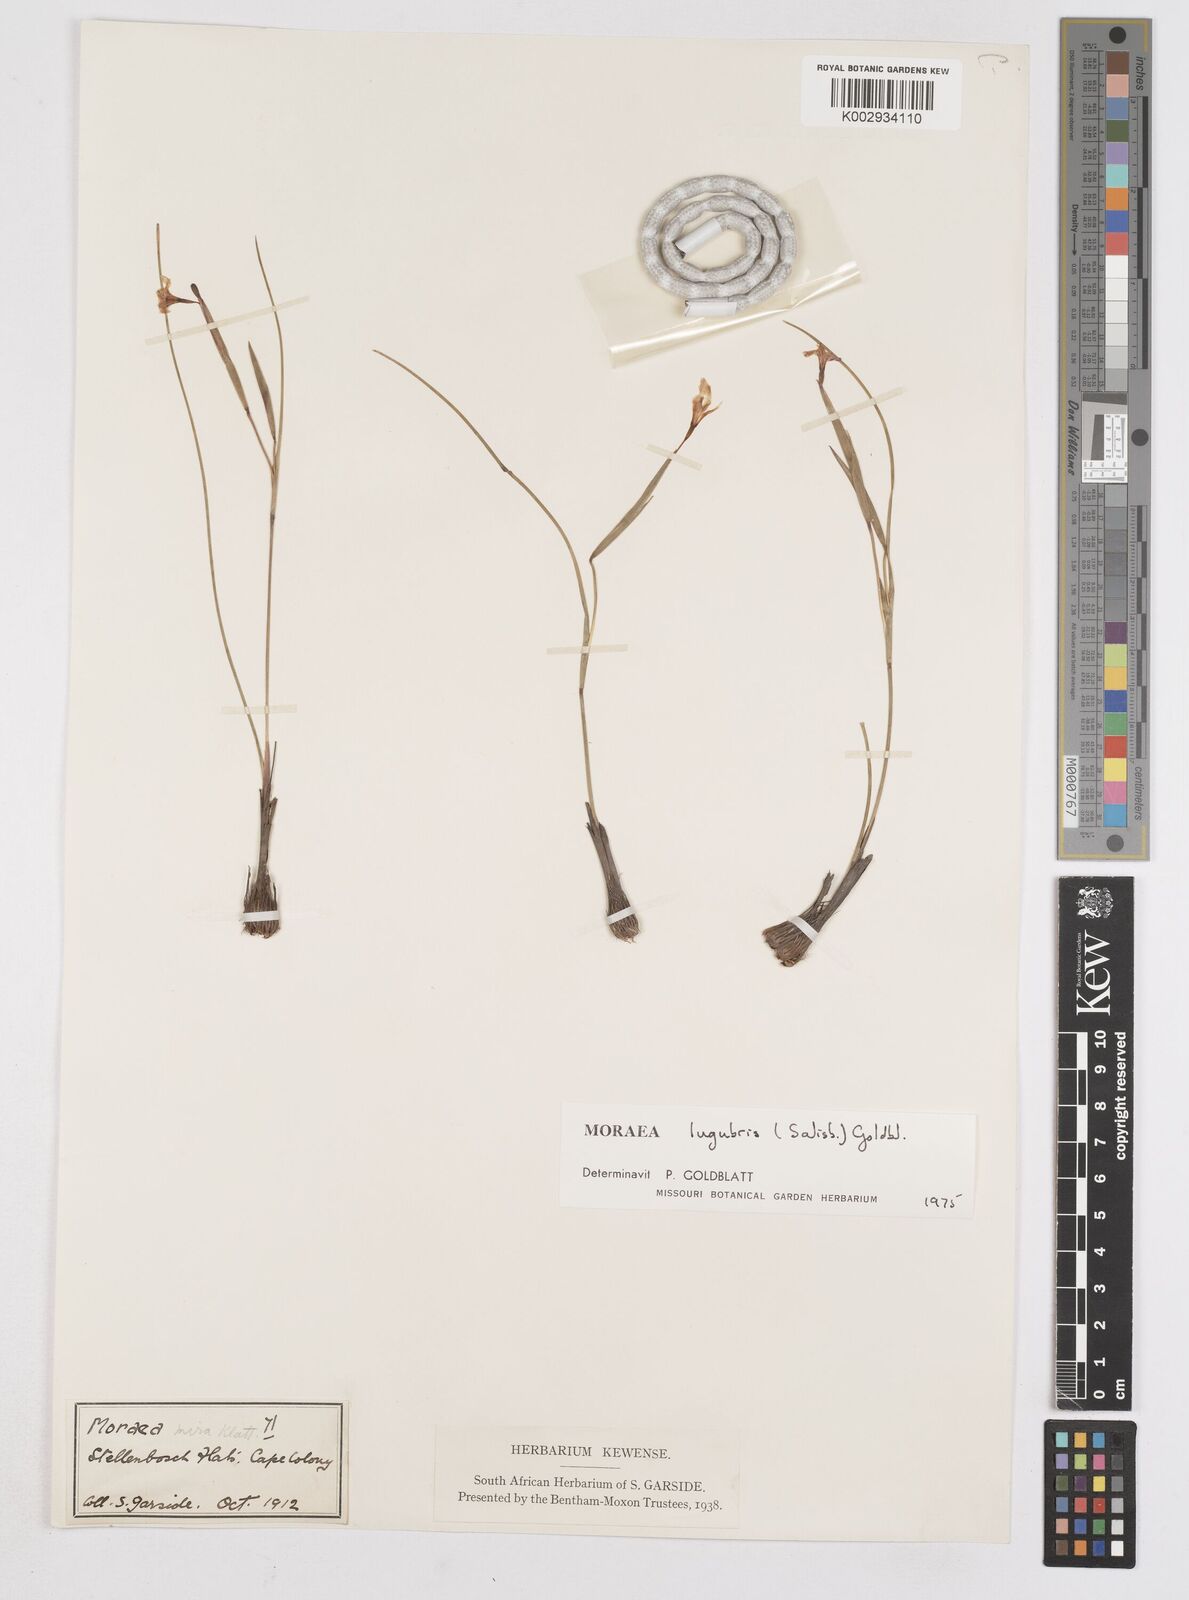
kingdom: Plantae
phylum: Tracheophyta
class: Liliopsida
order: Asparagales
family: Iridaceae
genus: Moraea
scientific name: Moraea lugubris
